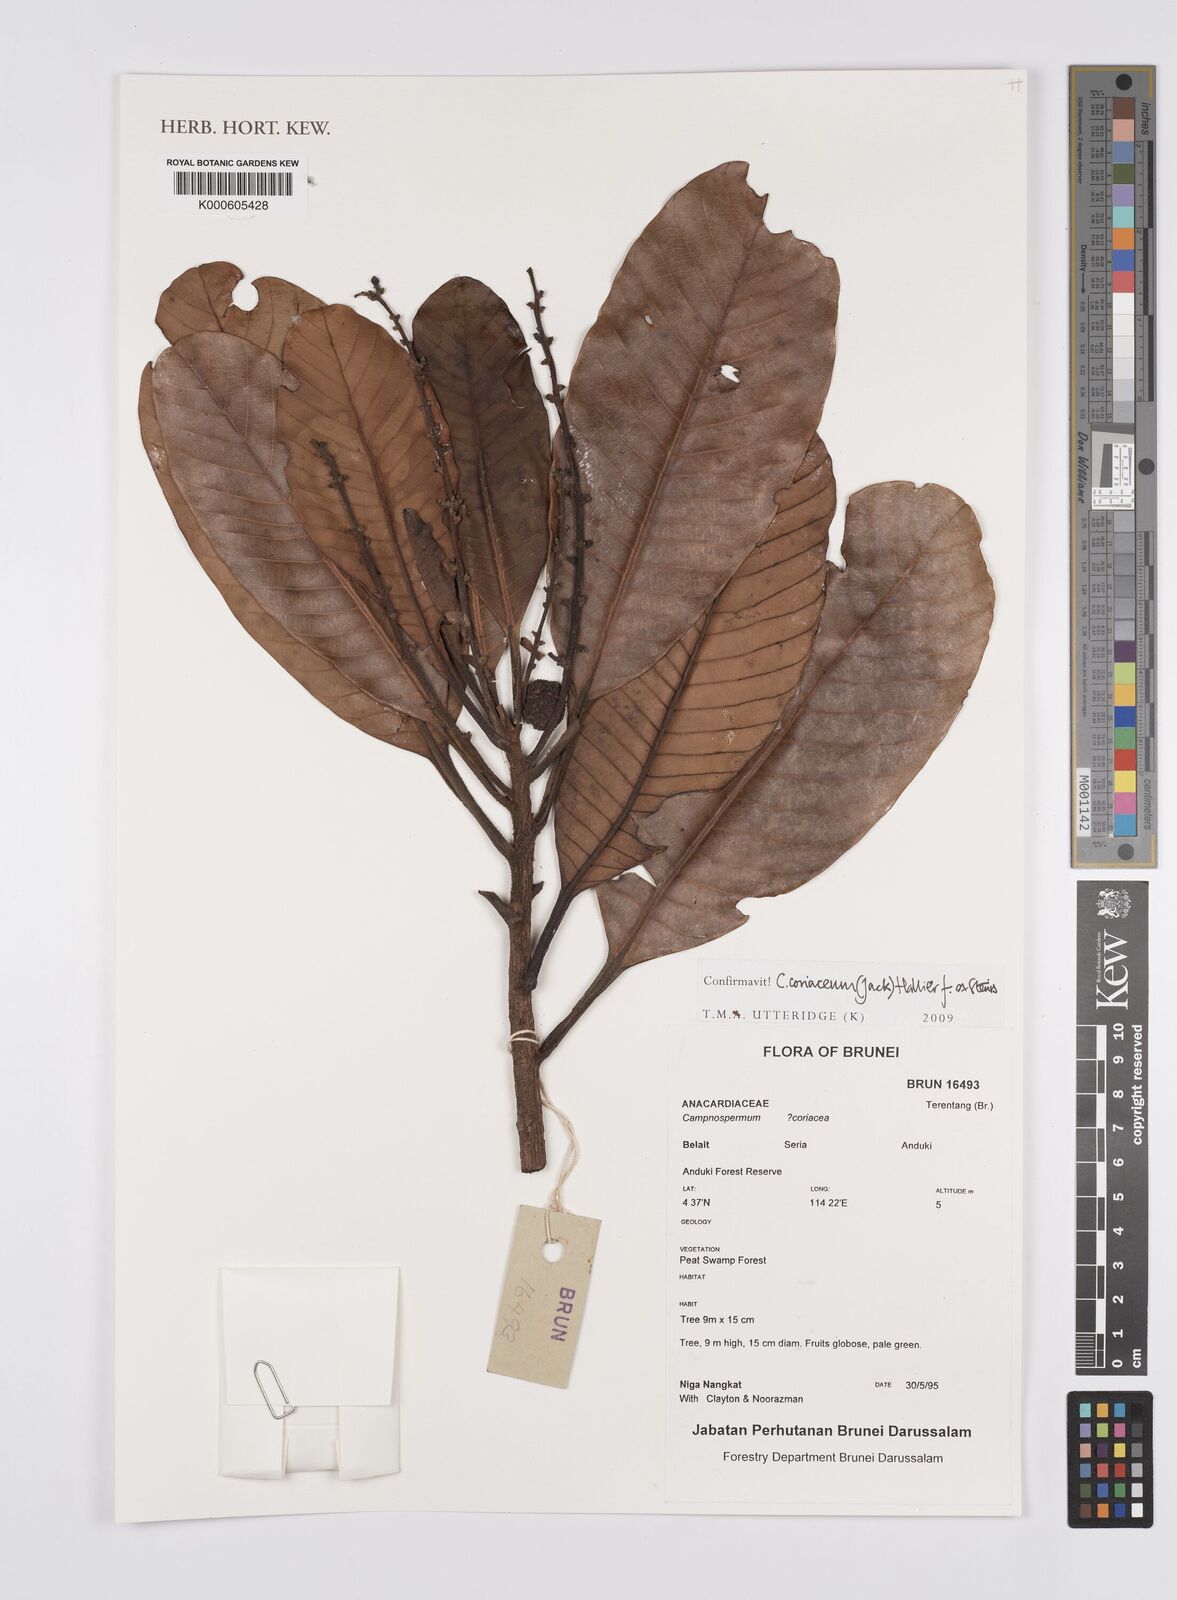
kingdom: Plantae
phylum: Tracheophyta
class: Magnoliopsida
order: Sapindales
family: Anacardiaceae
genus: Campnosperma
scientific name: Campnosperma
